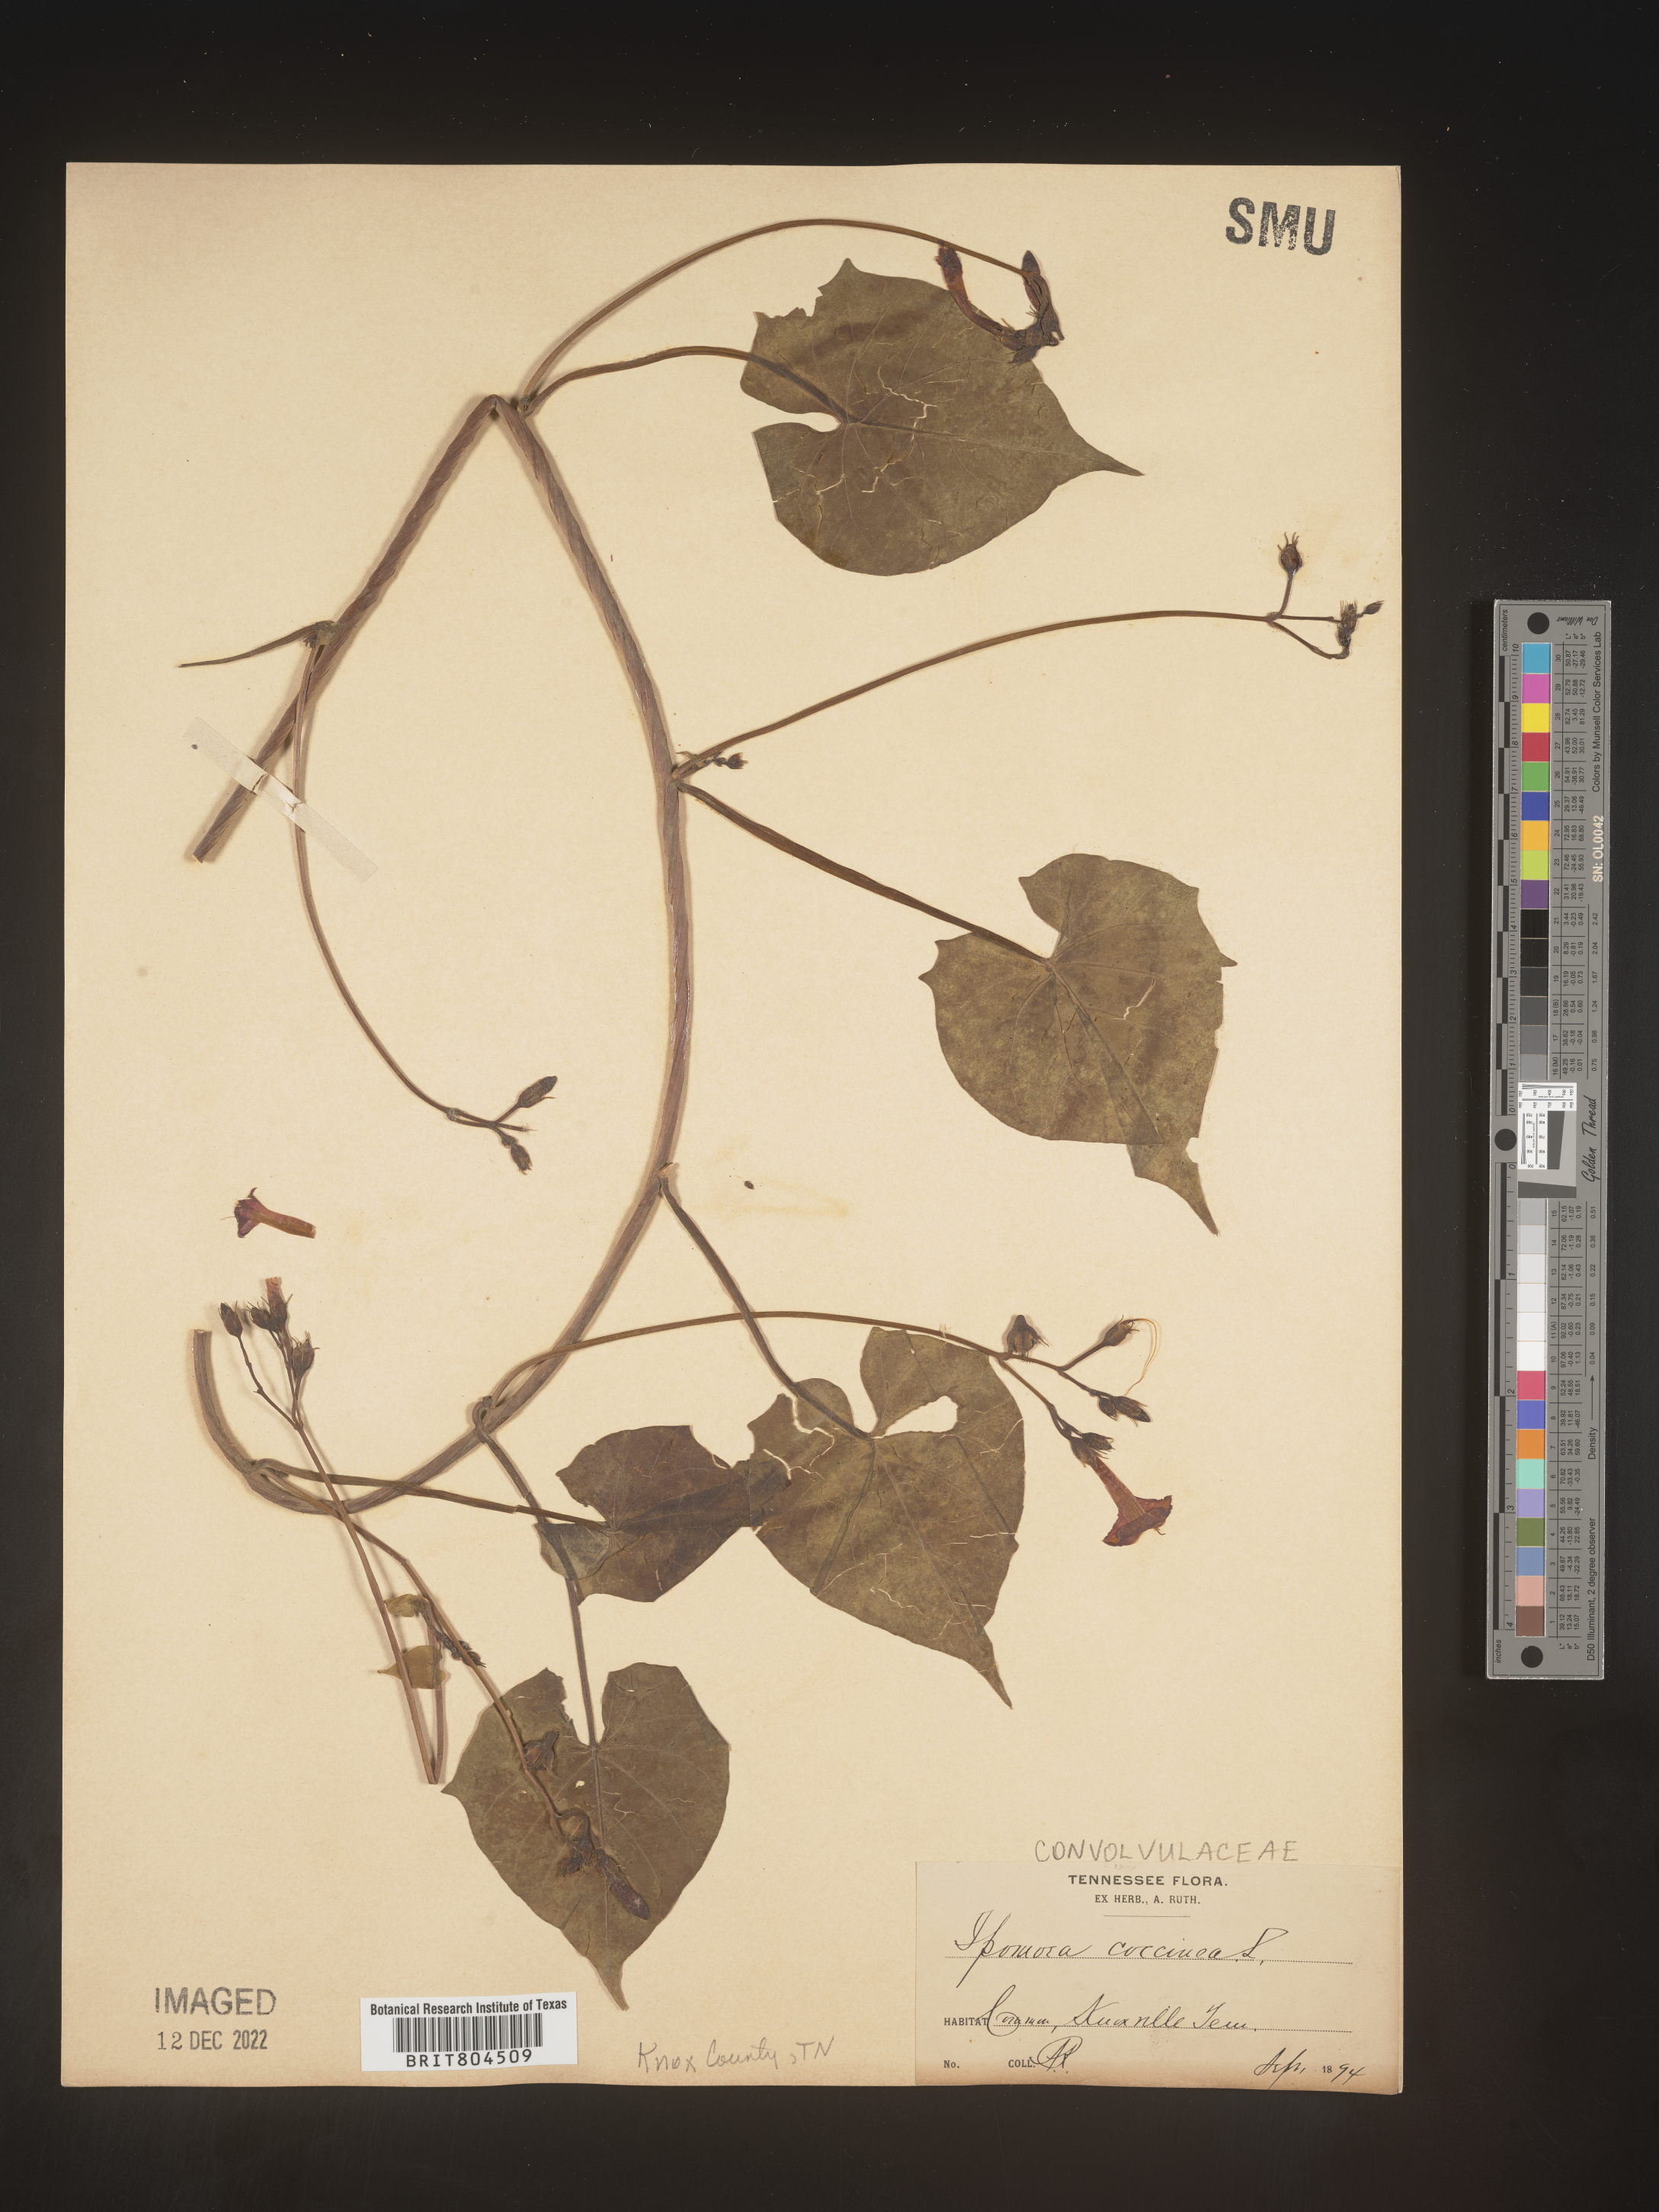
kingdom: Plantae
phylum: Tracheophyta
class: Magnoliopsida
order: Solanales
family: Convolvulaceae
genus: Ipomoea
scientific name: Ipomoea coccinea
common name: Red morning-glory
